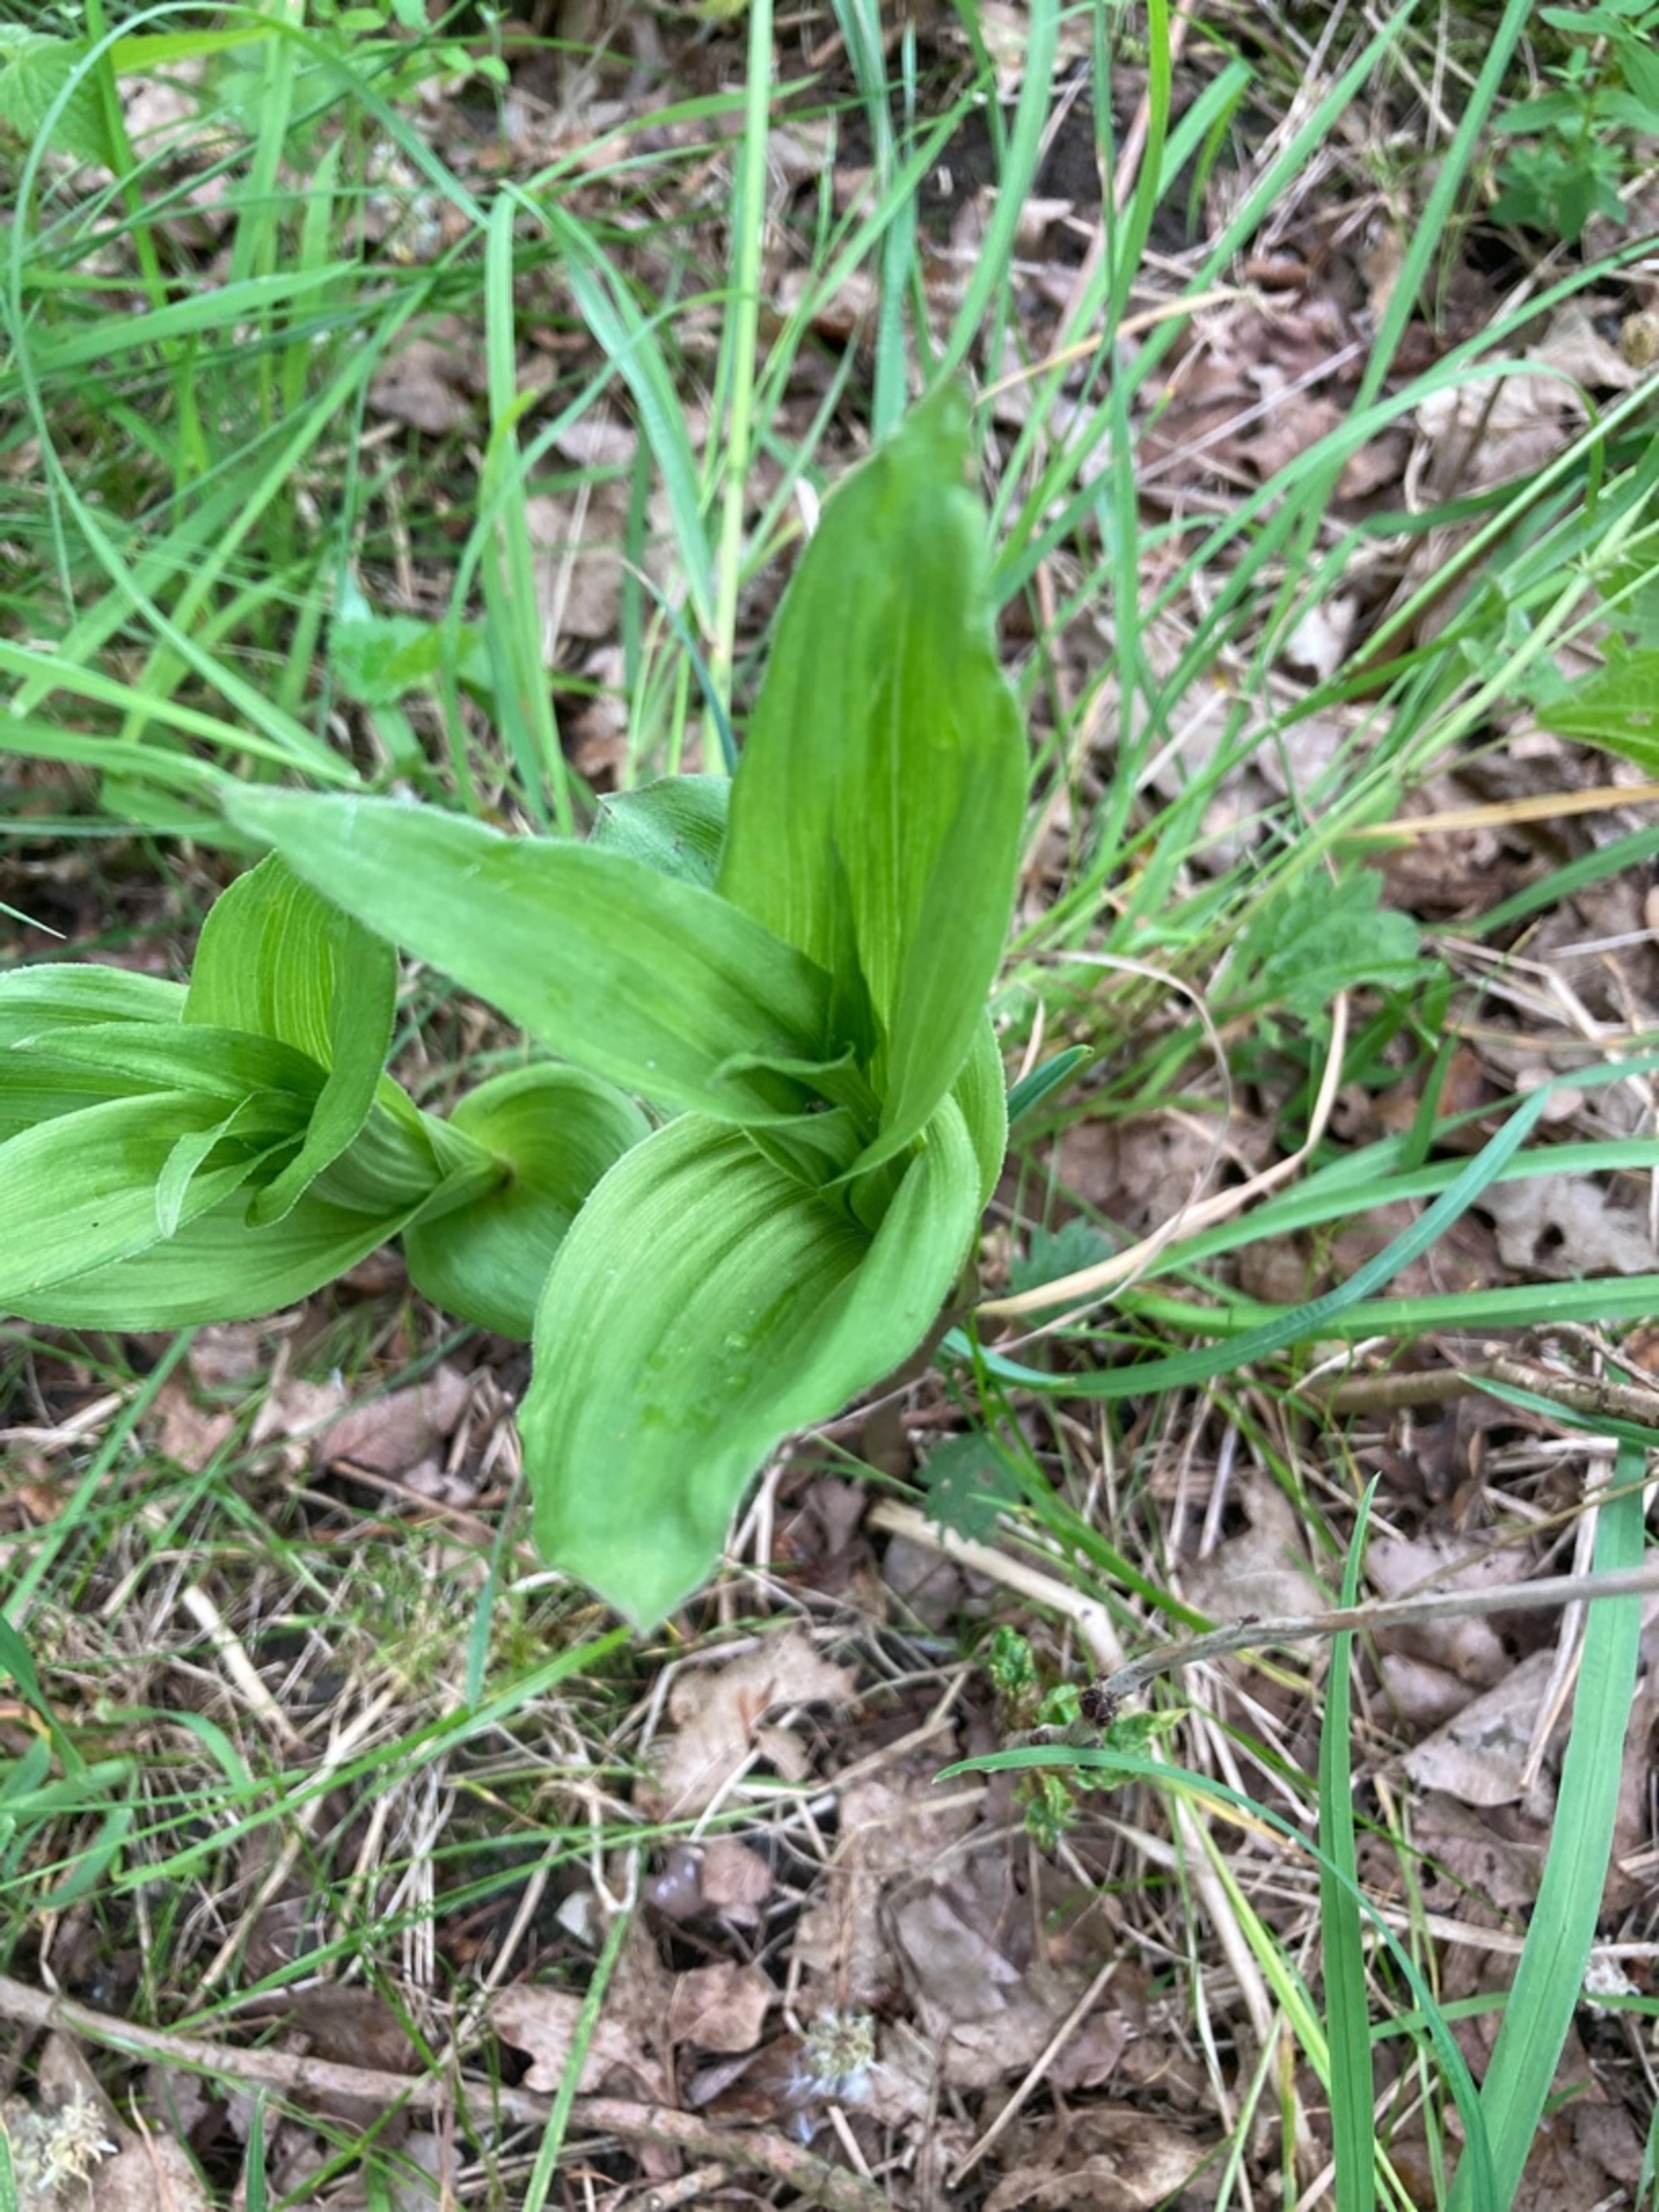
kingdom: Plantae
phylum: Tracheophyta
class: Liliopsida
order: Asparagales
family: Orchidaceae
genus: Epipactis
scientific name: Epipactis helleborine
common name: Skov-hullæbe
